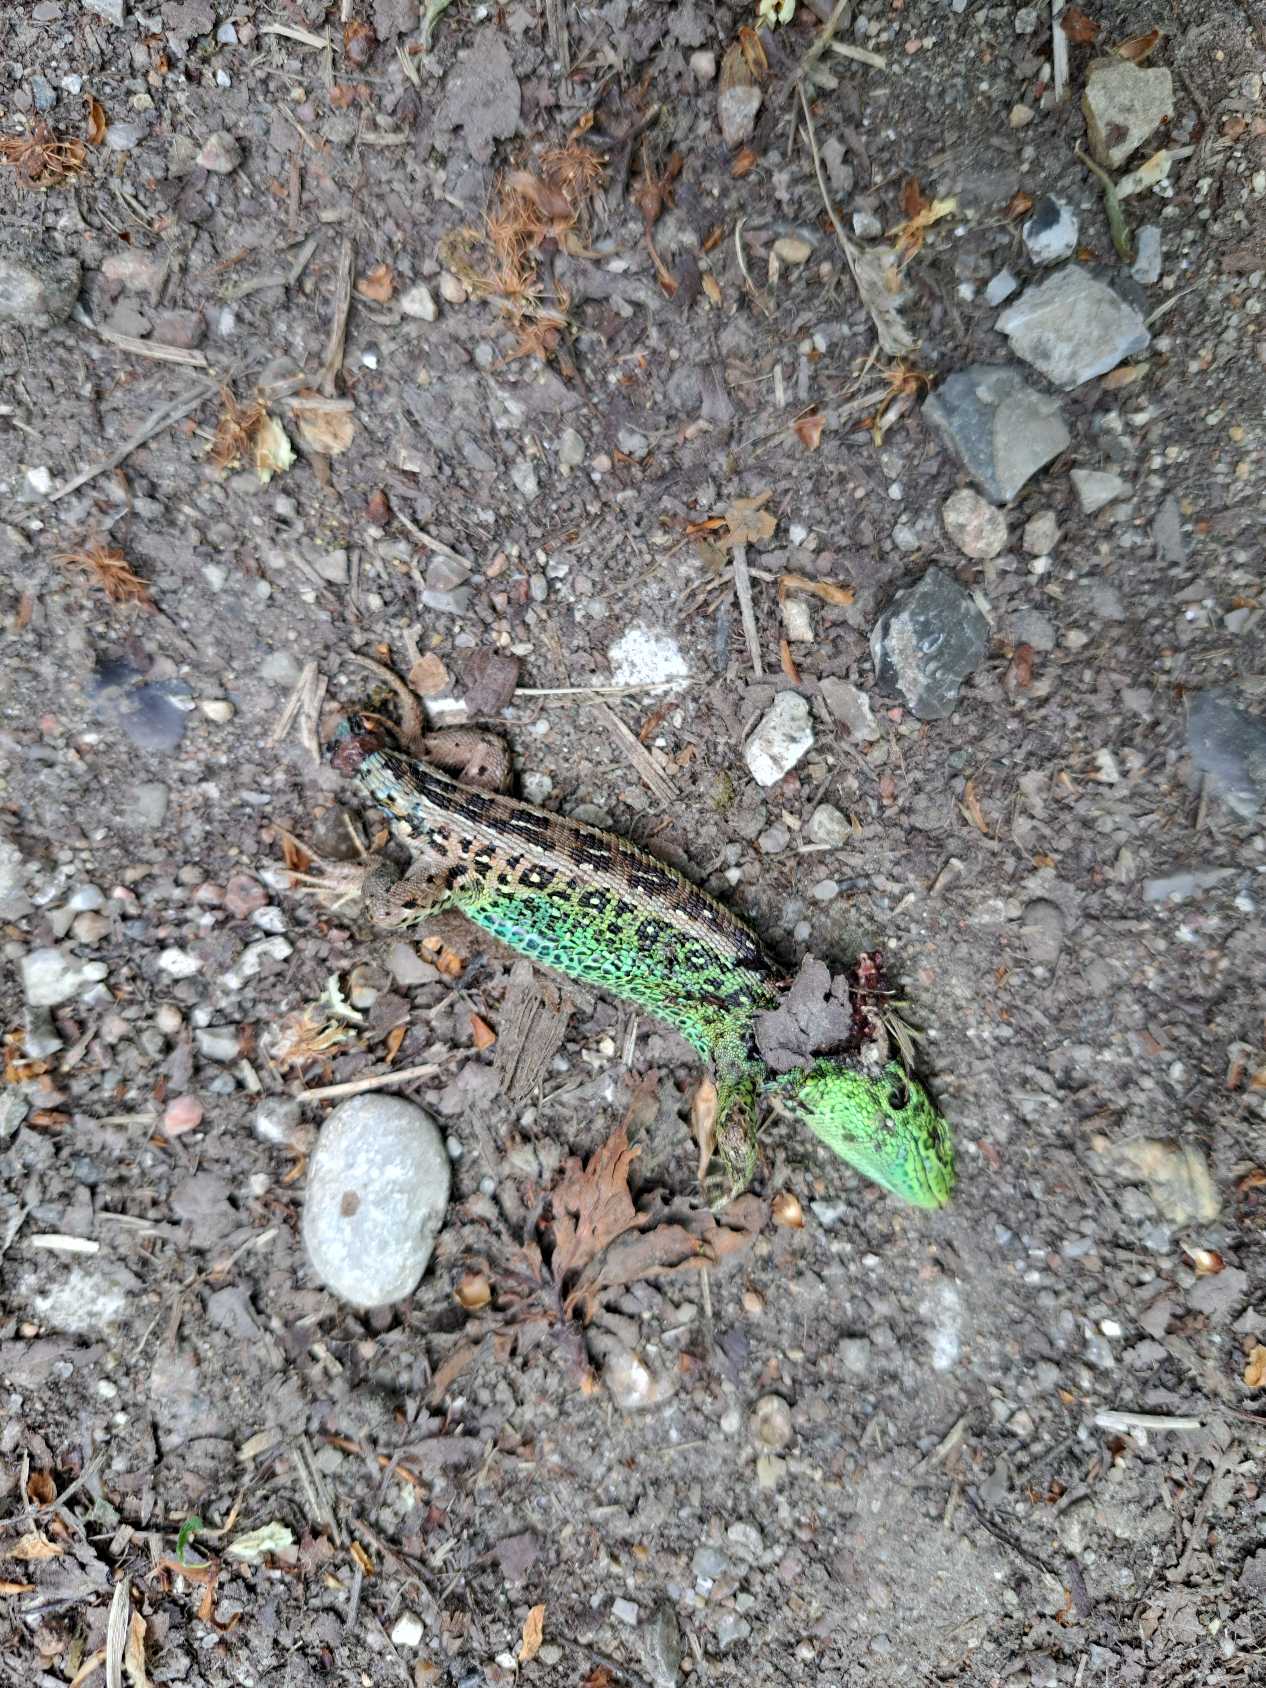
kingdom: Animalia
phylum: Chordata
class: Squamata
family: Lacertidae
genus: Lacerta
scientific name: Lacerta agilis
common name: Markfirben
